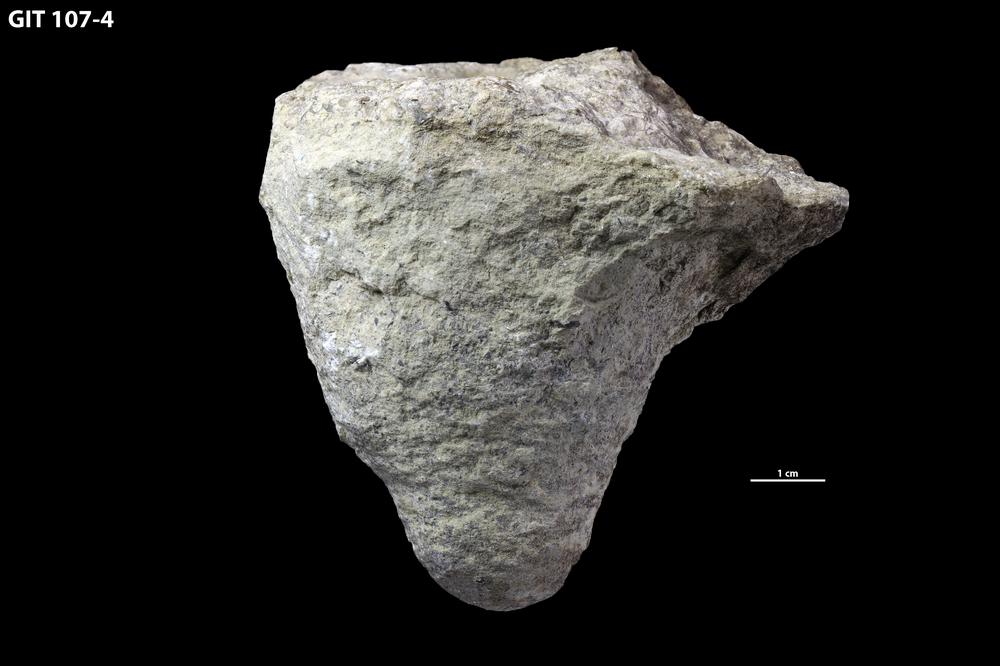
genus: Conichnus
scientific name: Conichnus
